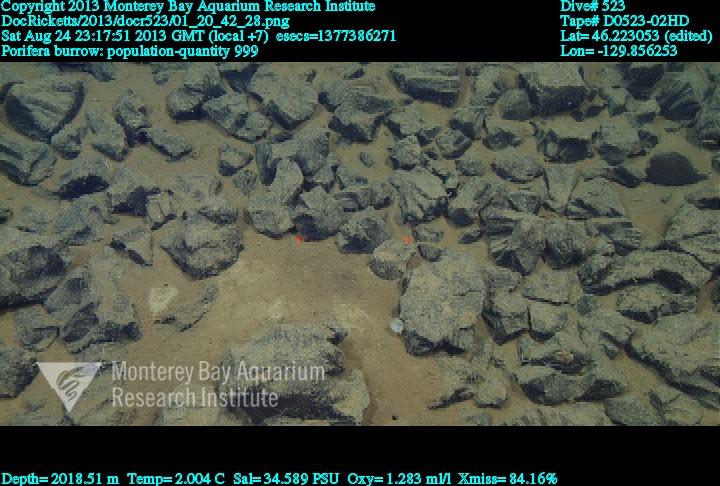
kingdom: Animalia
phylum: Porifera
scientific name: Porifera
